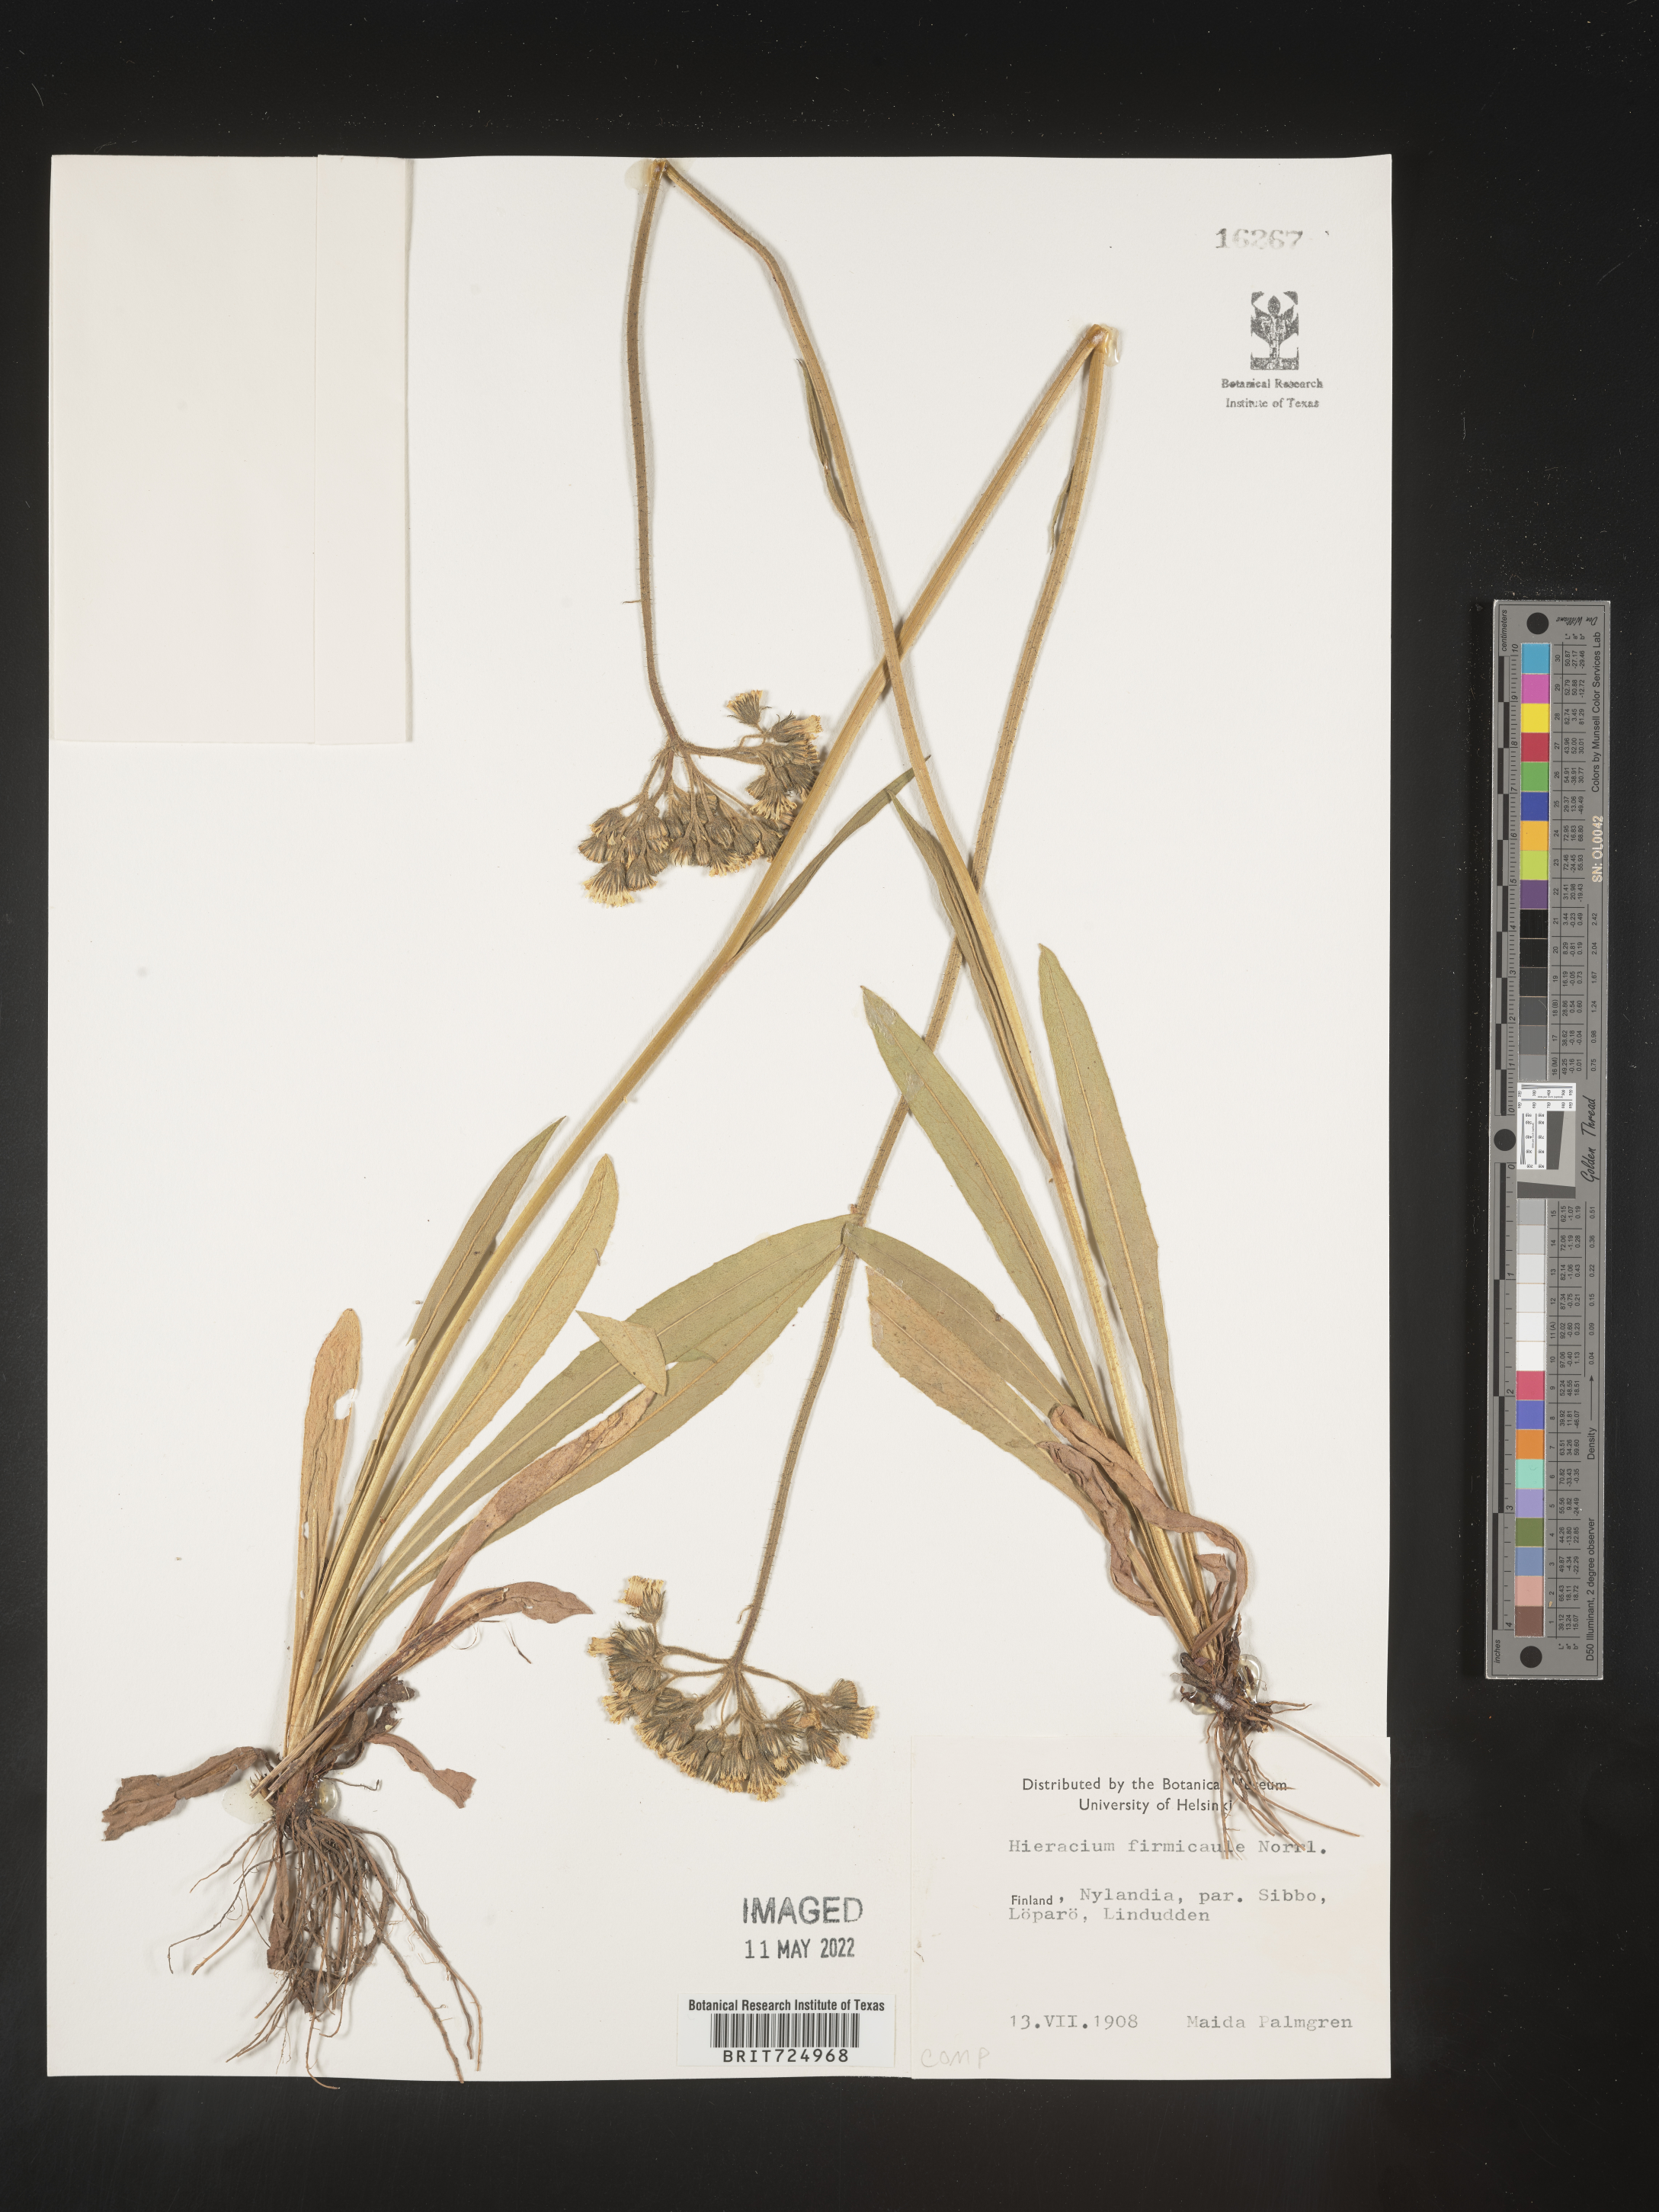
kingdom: Plantae
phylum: Tracheophyta
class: Magnoliopsida
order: Asterales
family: Asteraceae
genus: Hieracium
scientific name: Hieracium
